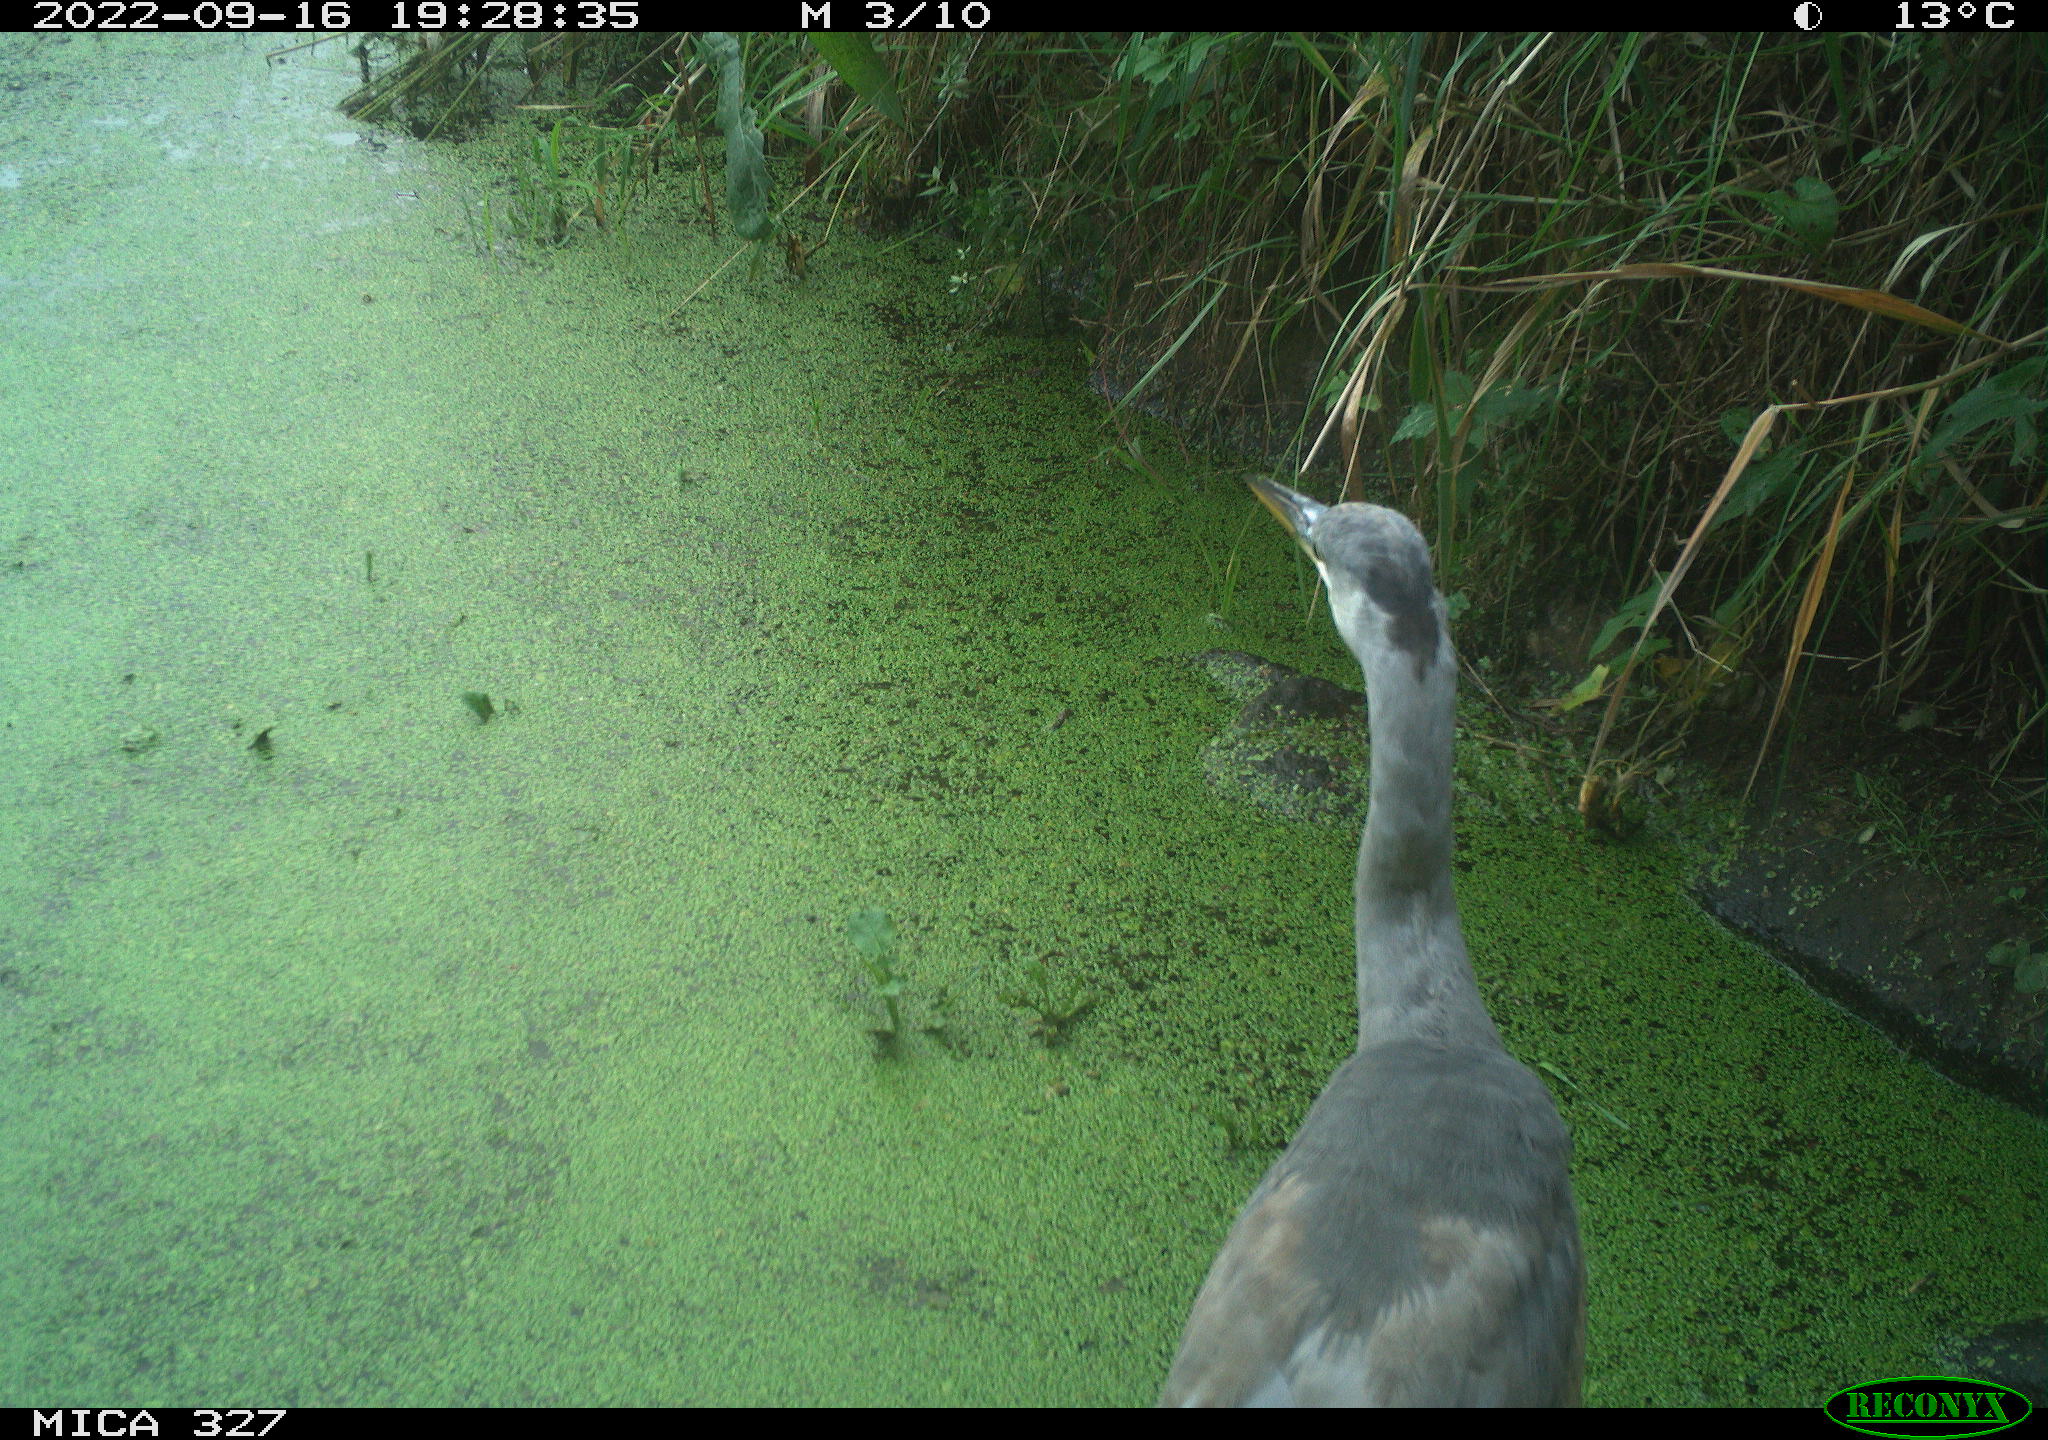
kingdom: Animalia
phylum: Chordata
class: Aves
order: Pelecaniformes
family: Ardeidae
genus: Ardea
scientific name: Ardea cinerea
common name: Grey heron
